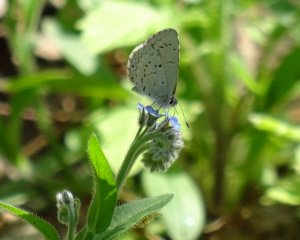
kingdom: Animalia
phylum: Arthropoda
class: Insecta
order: Lepidoptera
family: Lycaenidae
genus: Celastrina
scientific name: Celastrina
